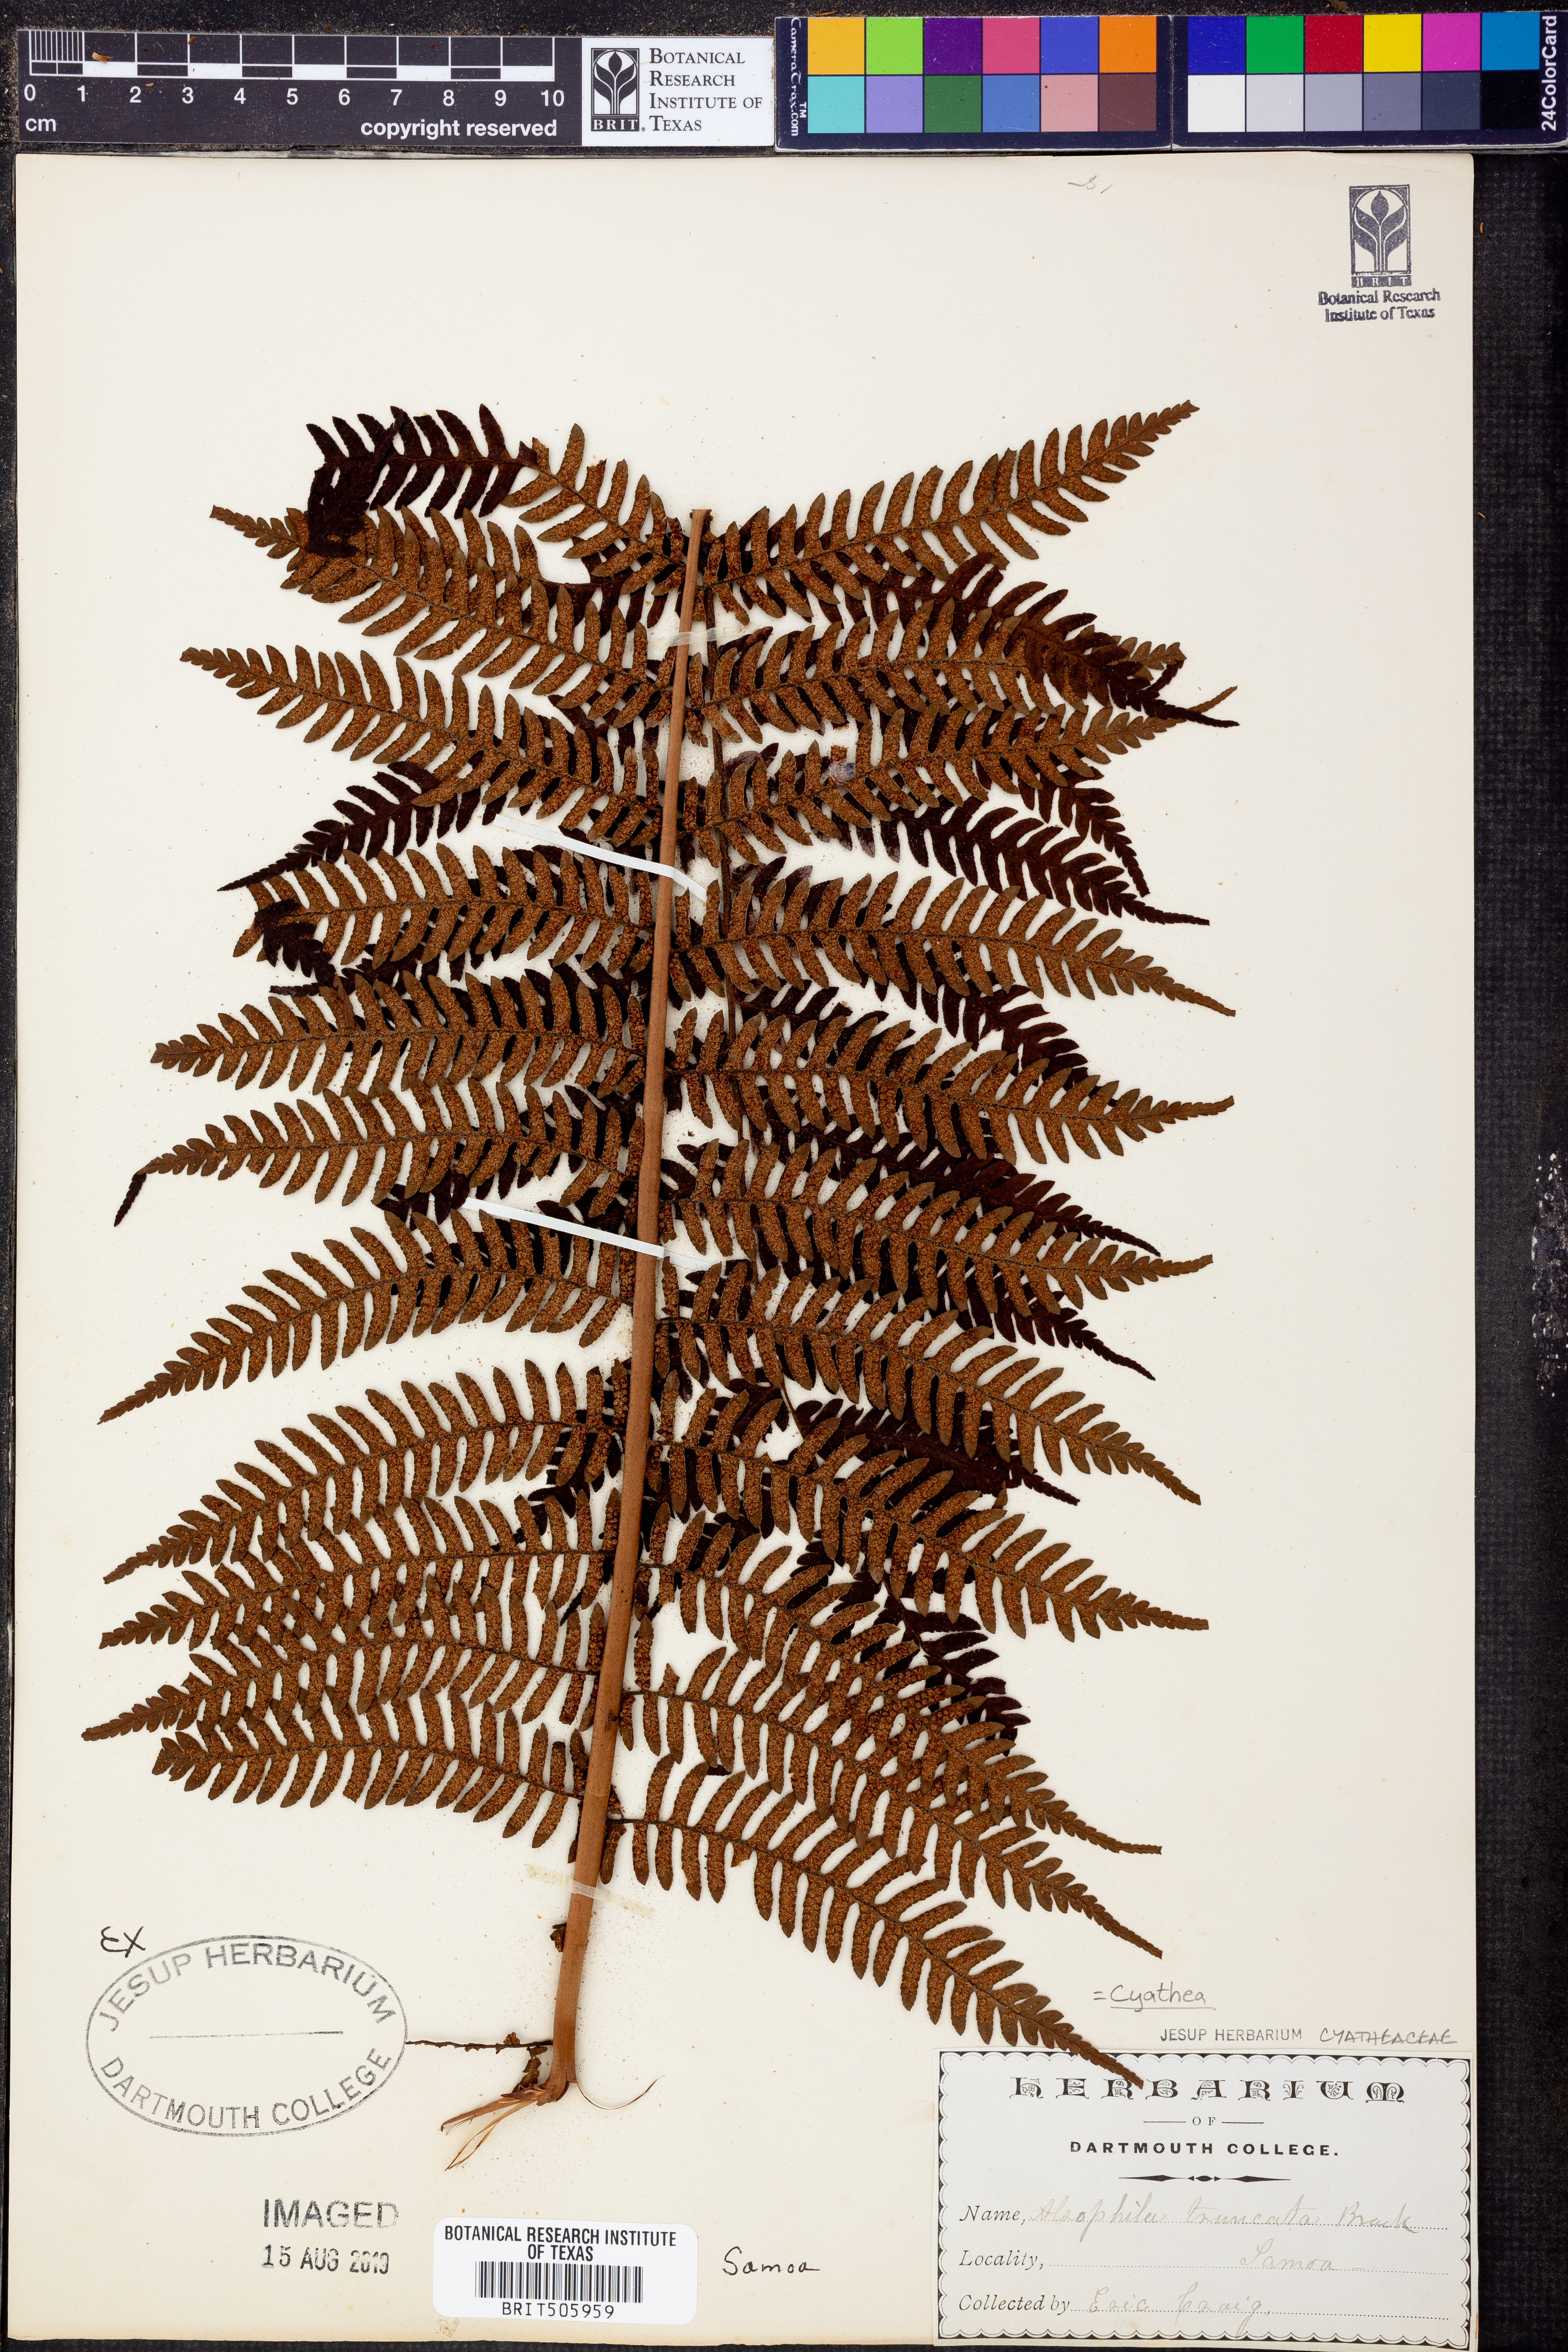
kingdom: Plantae
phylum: Tracheophyta
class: Polypodiopsida
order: Cyatheales
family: Cyatheaceae
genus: Sphaeropteris
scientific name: Sphaeropteris truncata
